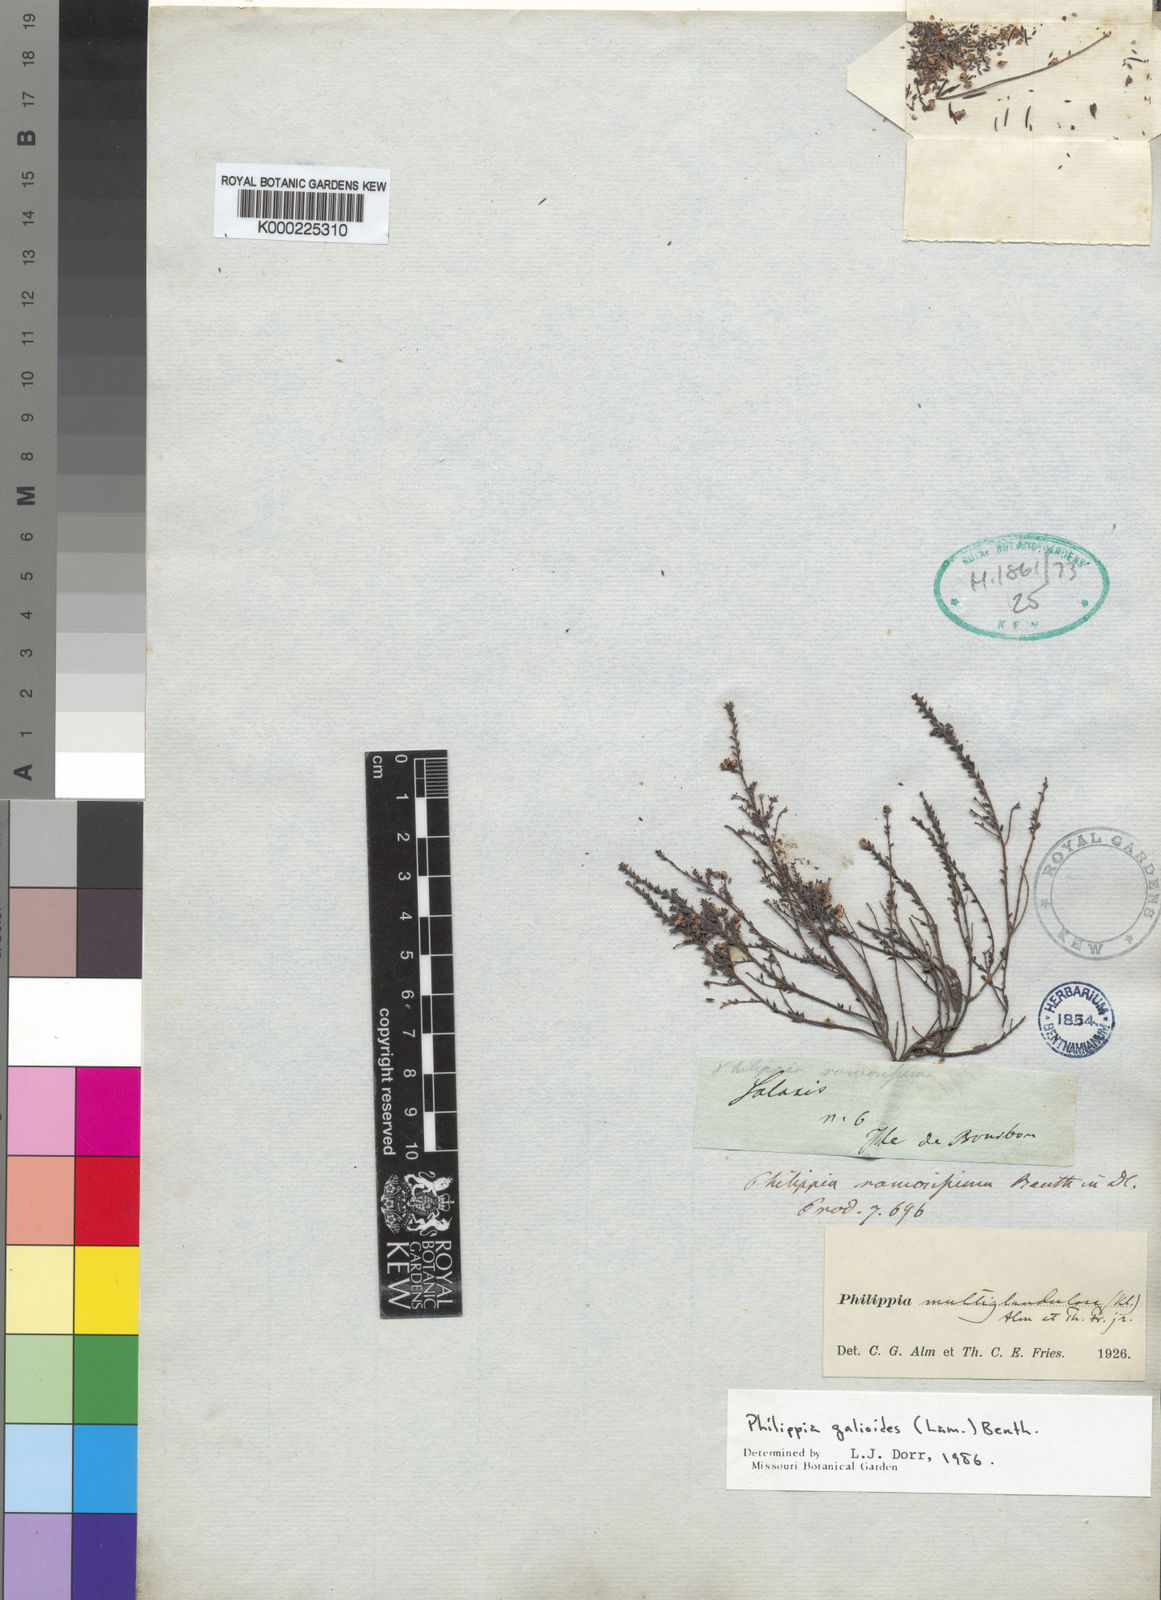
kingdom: Plantae
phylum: Tracheophyta
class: Magnoliopsida
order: Ericales
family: Ericaceae
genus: Erica
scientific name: Erica galioides
